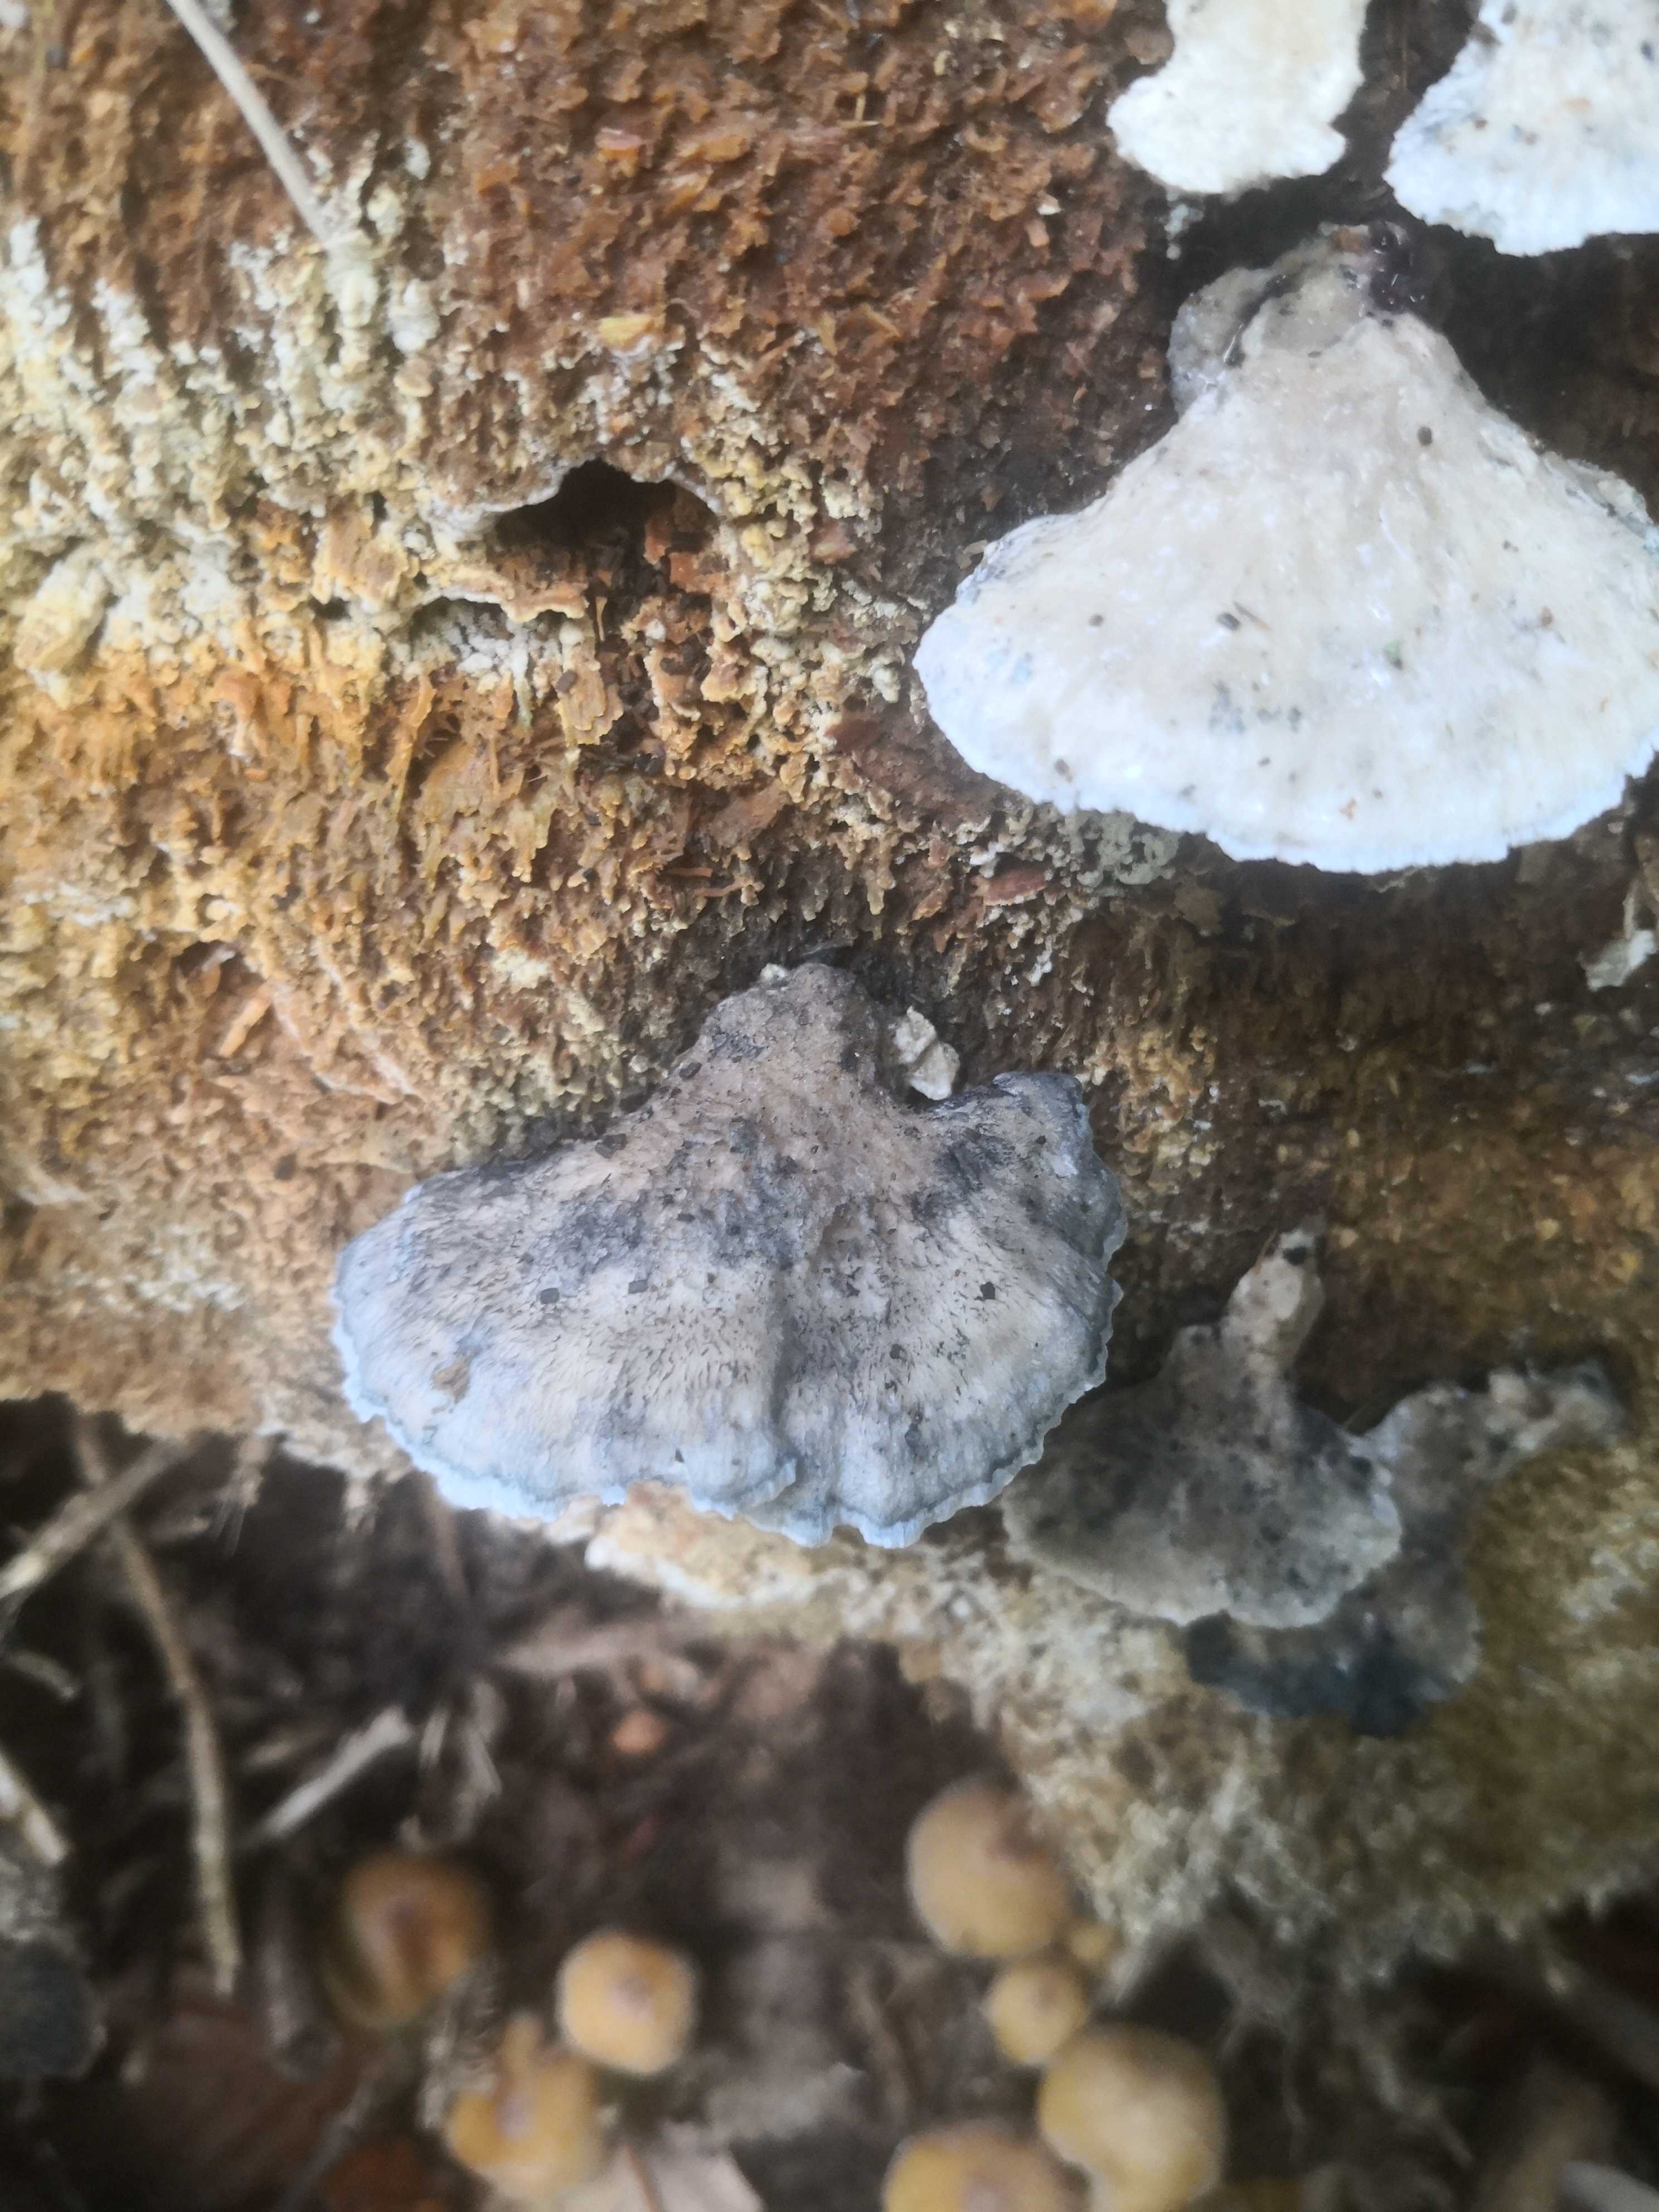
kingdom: Fungi
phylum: Basidiomycota
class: Agaricomycetes
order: Polyporales
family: Polyporaceae
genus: Cyanosporus
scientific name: Cyanosporus caesius
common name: blålig kødporesvamp
